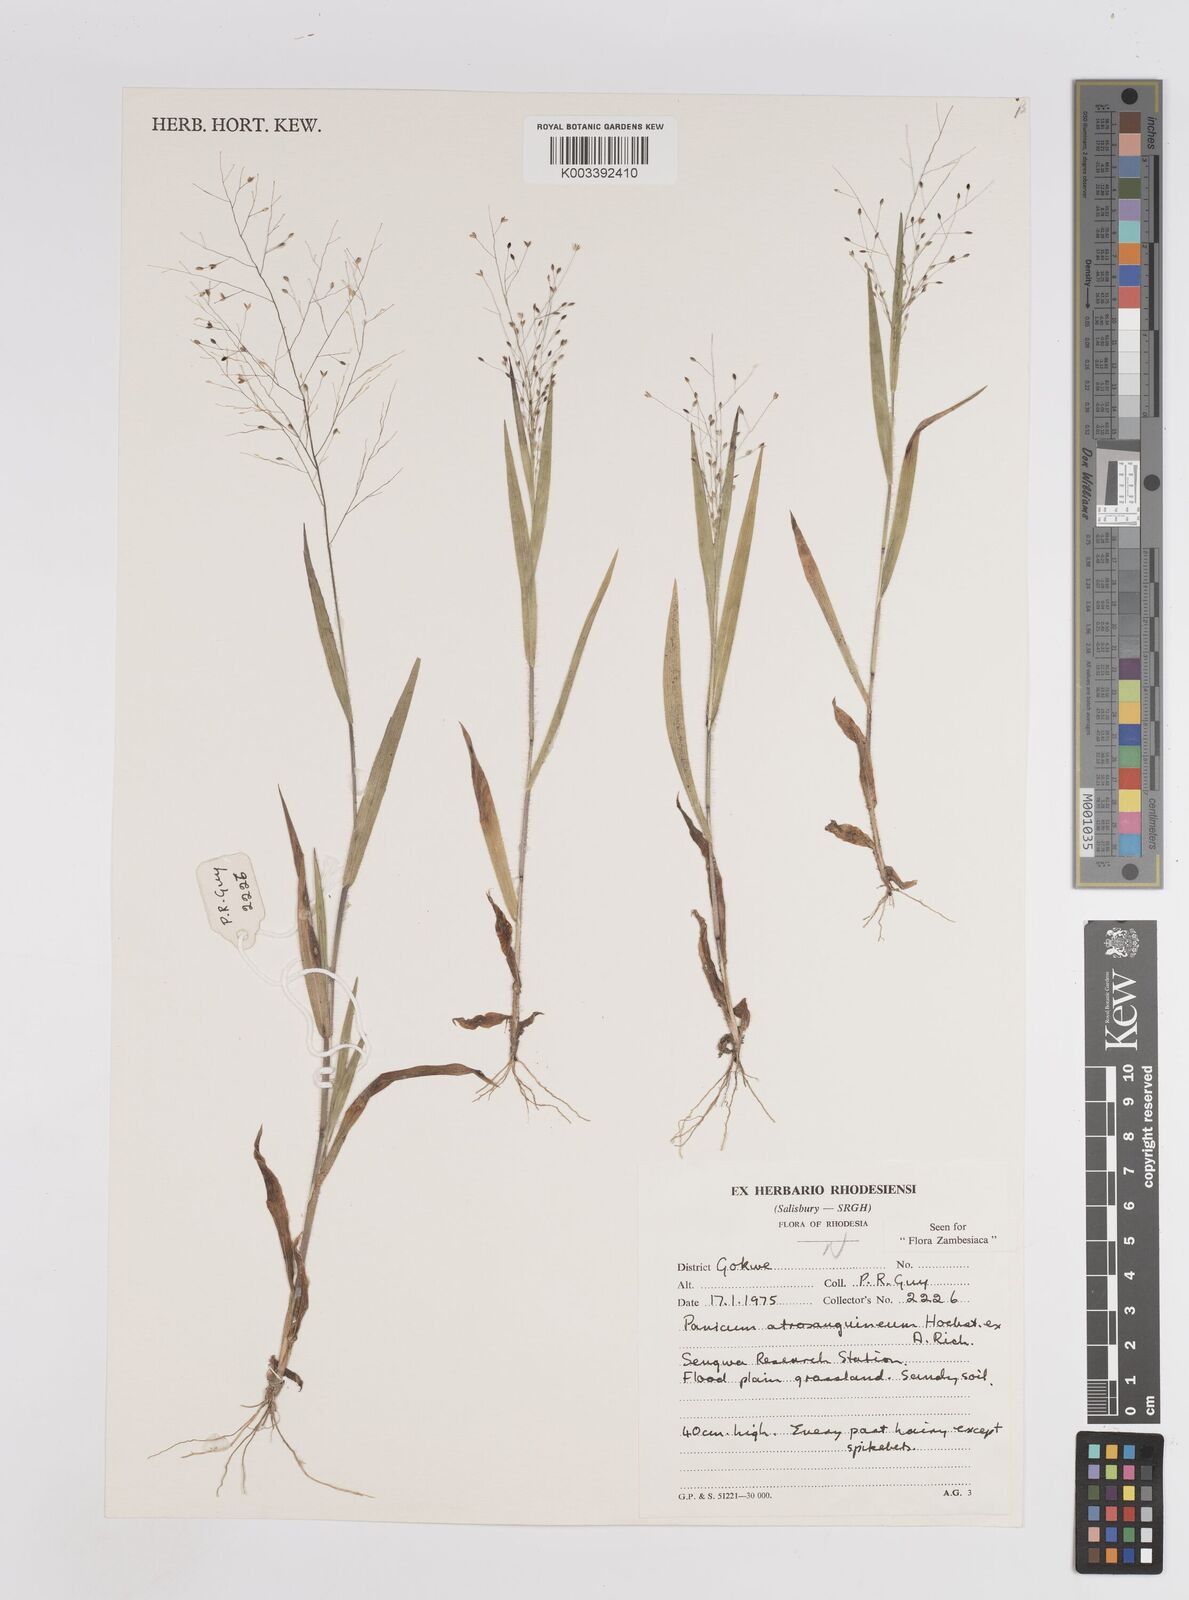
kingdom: Plantae
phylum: Tracheophyta
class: Liliopsida
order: Poales
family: Poaceae
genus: Panicum
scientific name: Panicum atrosanguineum
